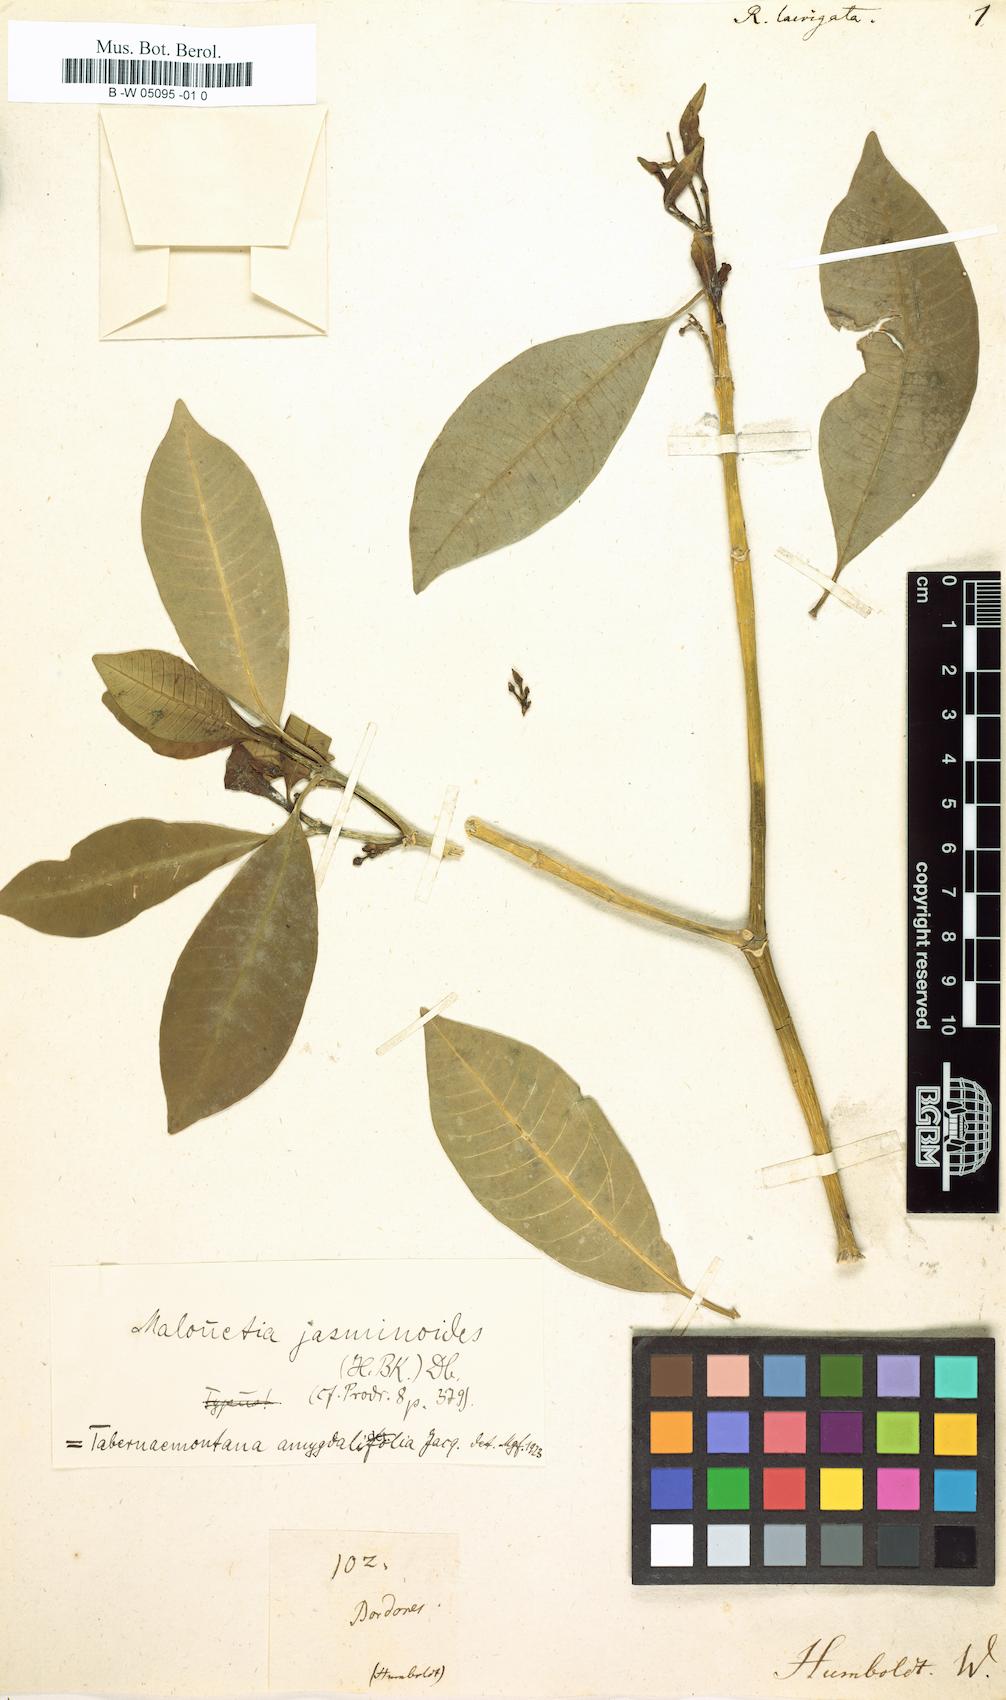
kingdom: Plantae
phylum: Tracheophyta
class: Magnoliopsida
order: Gentianales
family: Apocynaceae
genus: Tabernaemontana
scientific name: Tabernaemontana amygdalifolia
